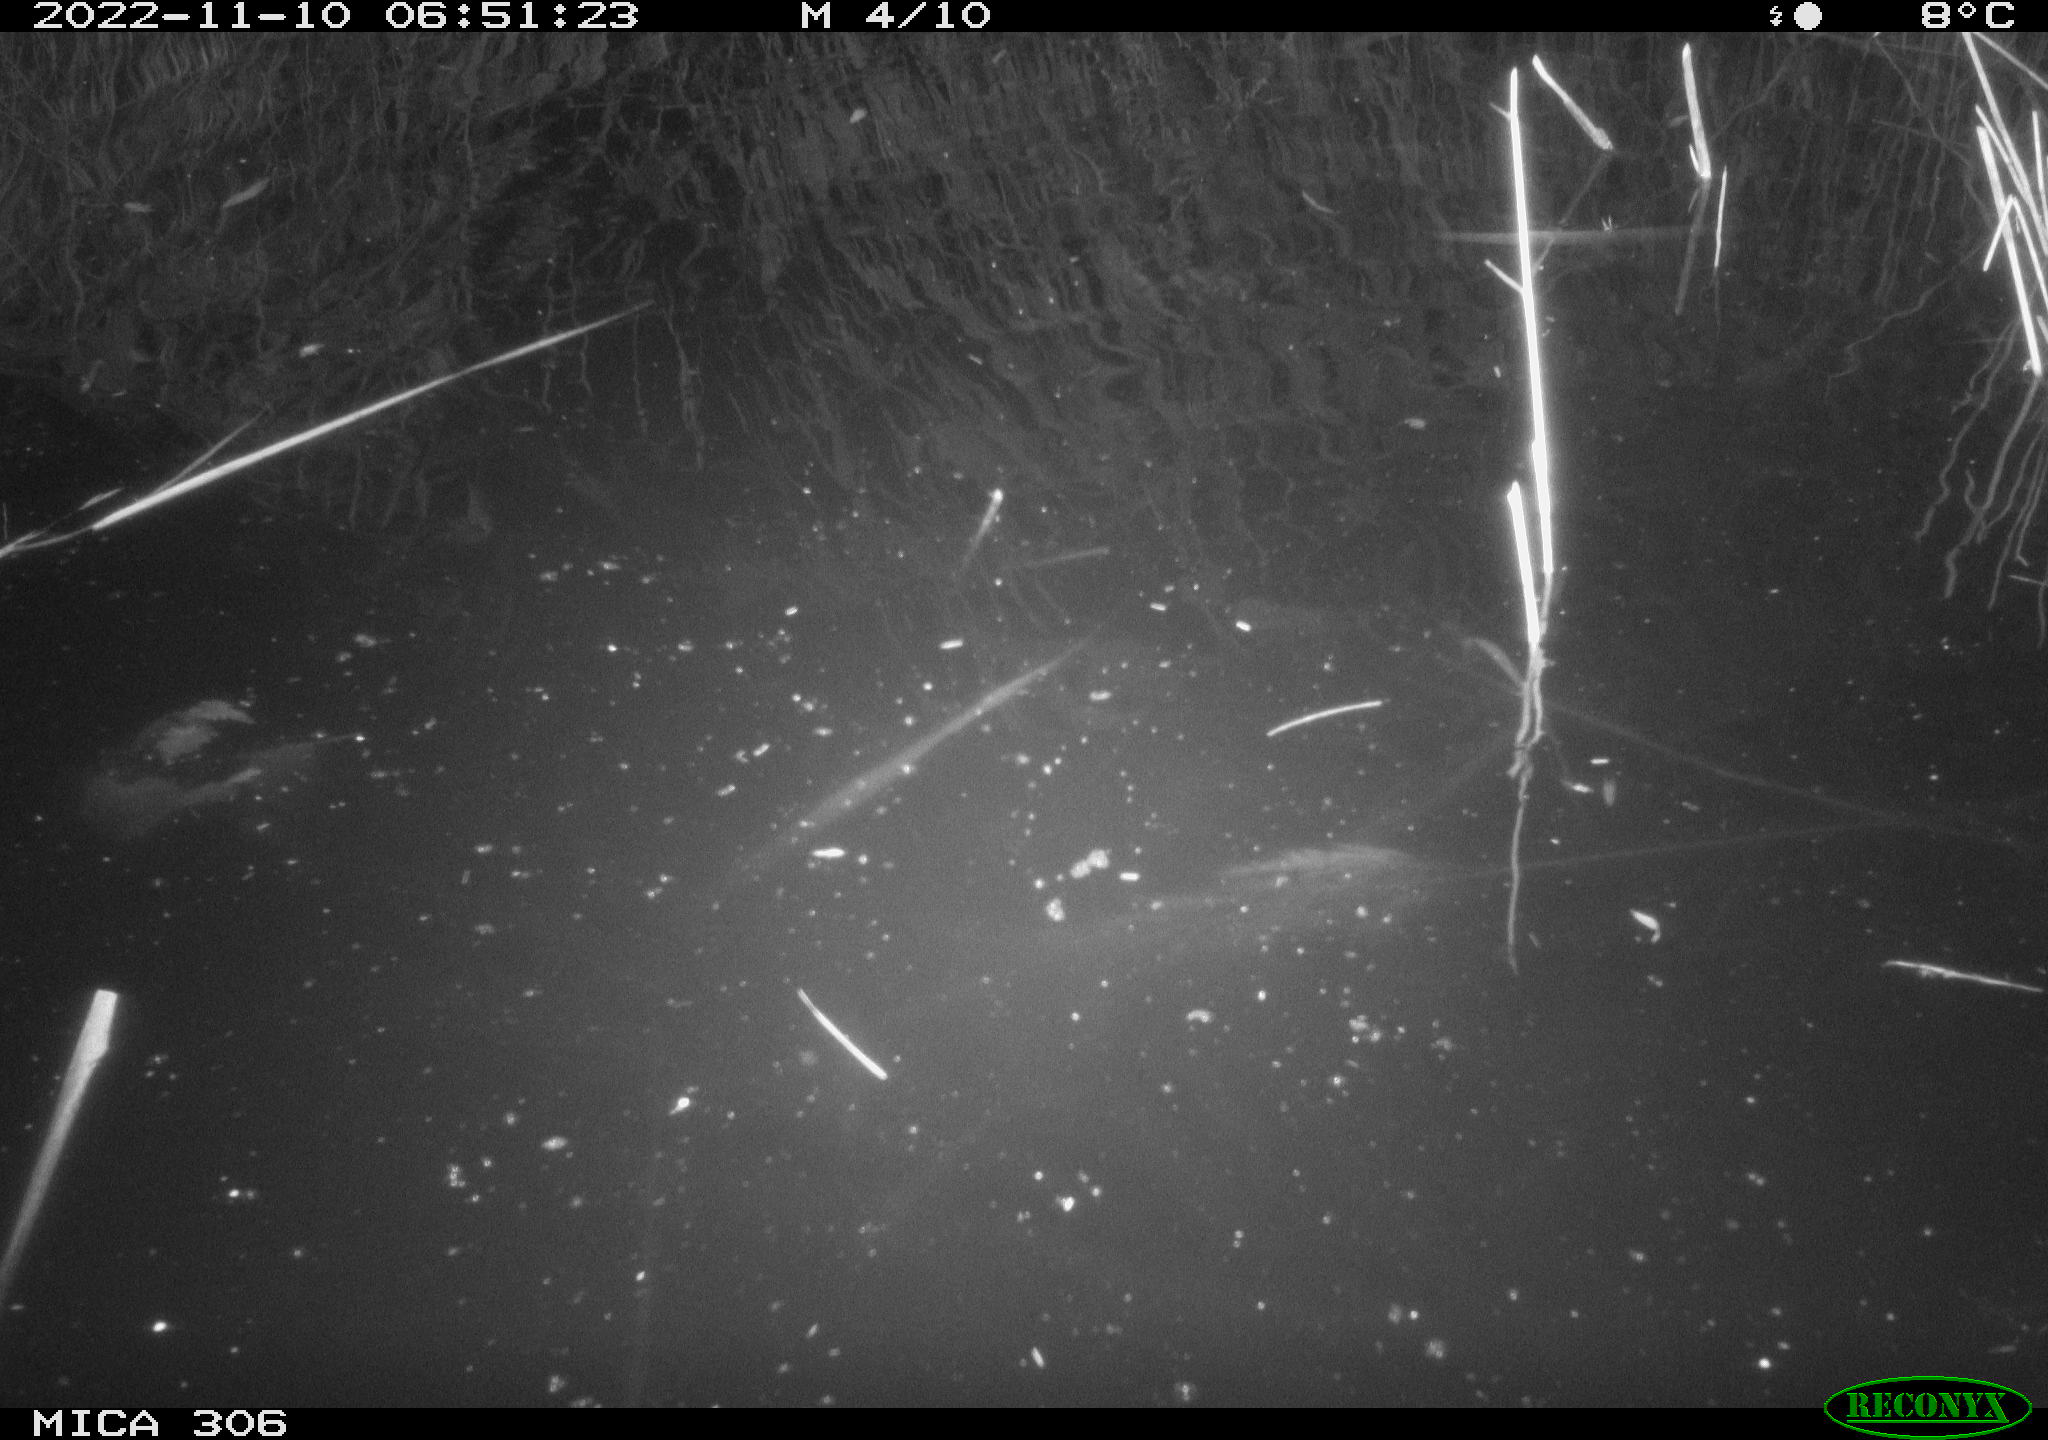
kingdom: Animalia
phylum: Chordata
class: Mammalia
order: Rodentia
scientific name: Rodentia
